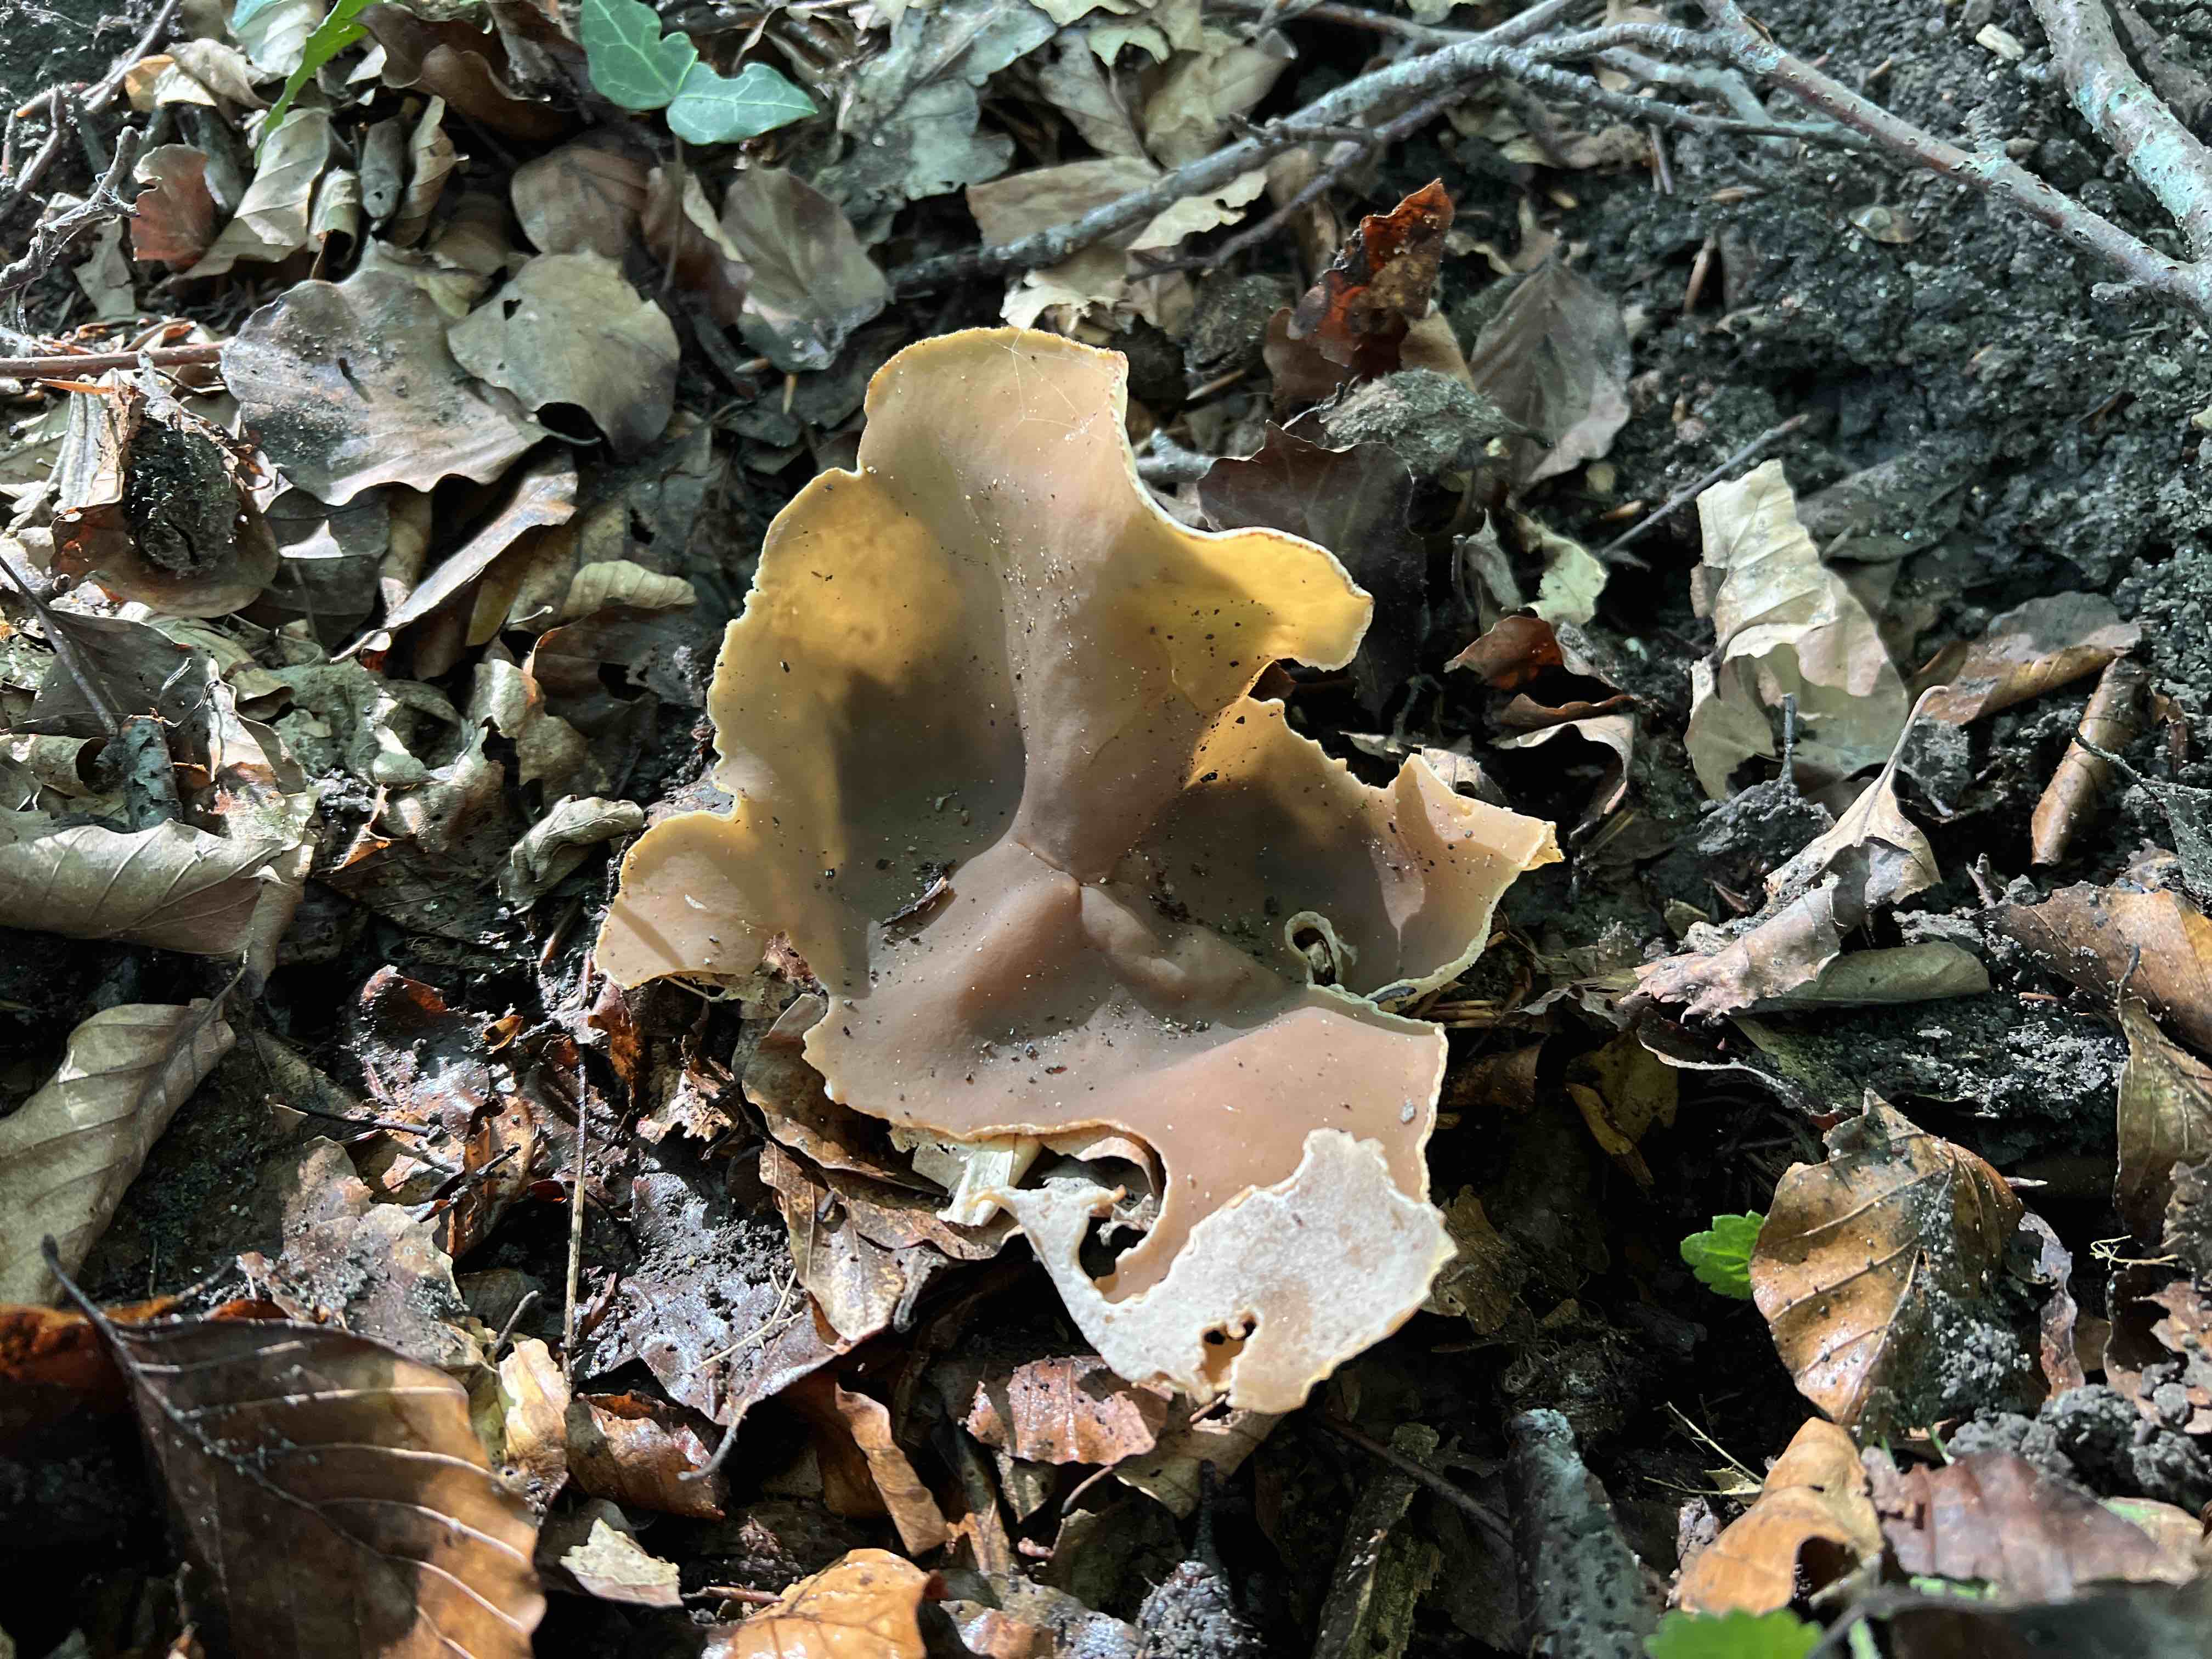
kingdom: Fungi
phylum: Ascomycota
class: Pezizomycetes
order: Pezizales
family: Pezizaceae
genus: Peziza
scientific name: Peziza
